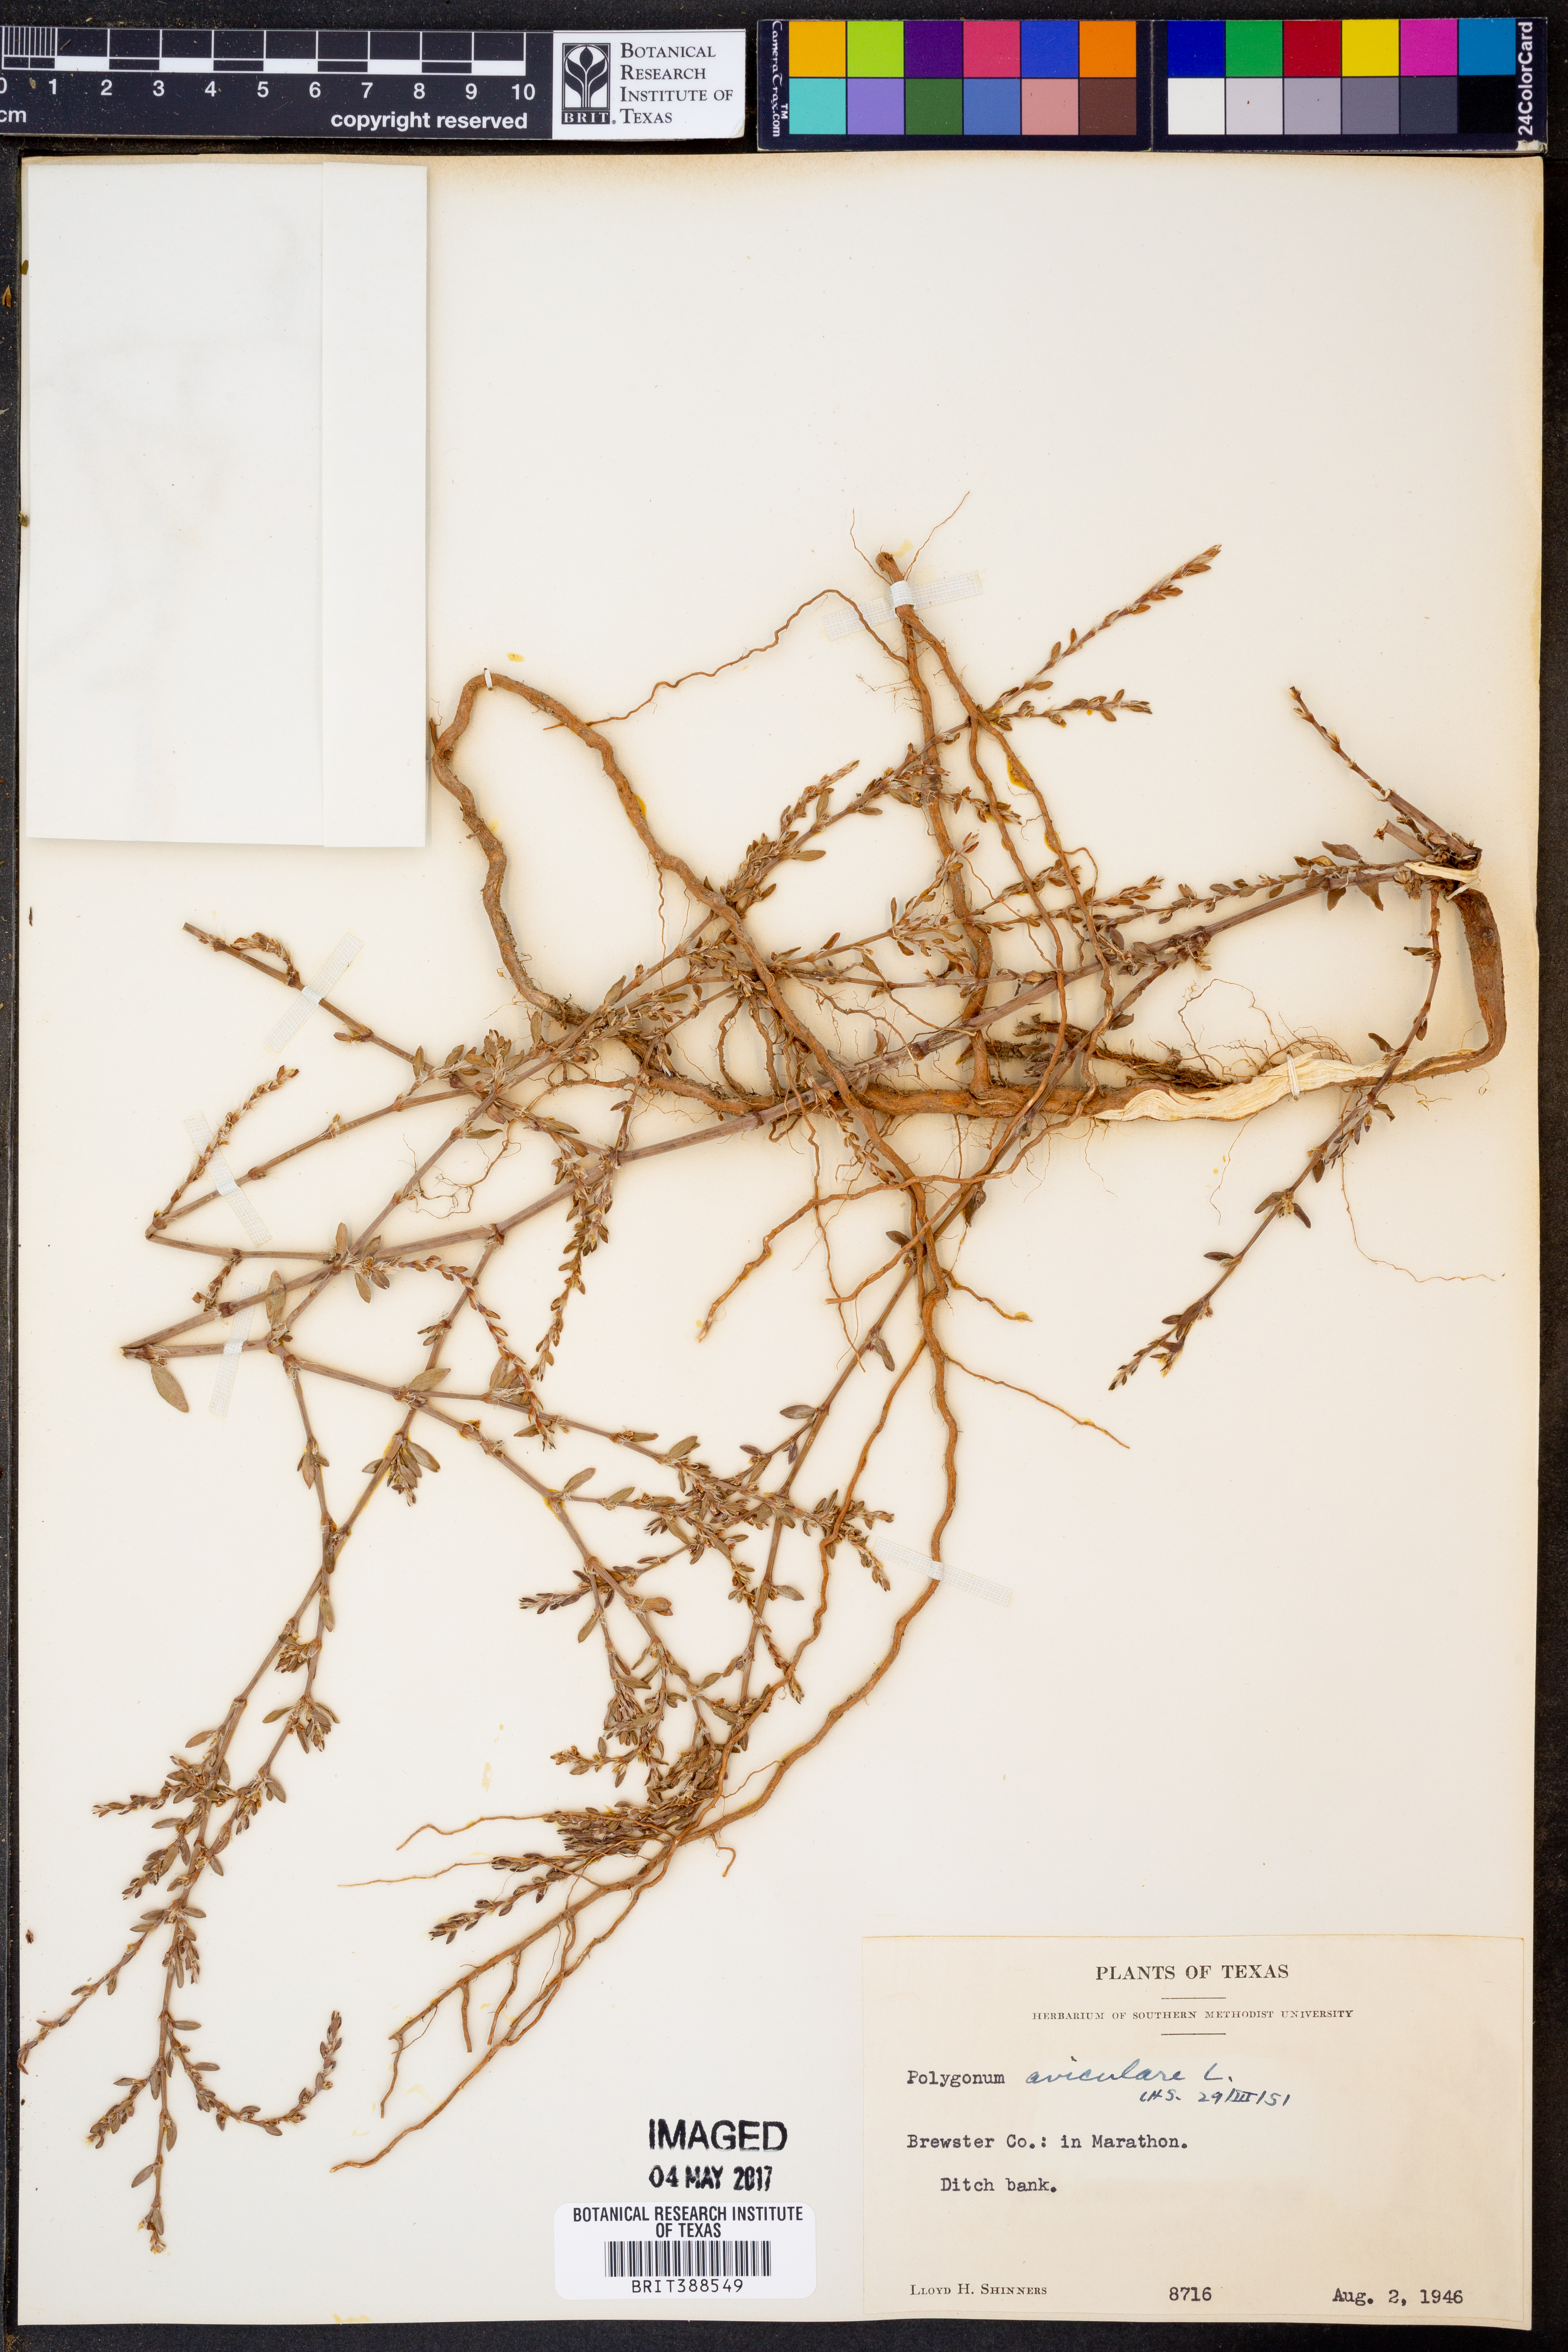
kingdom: Plantae
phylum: Tracheophyta
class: Magnoliopsida
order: Caryophyllales
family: Polygonaceae
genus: Polygonum
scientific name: Polygonum aviculare
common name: Prostrate knotweed
